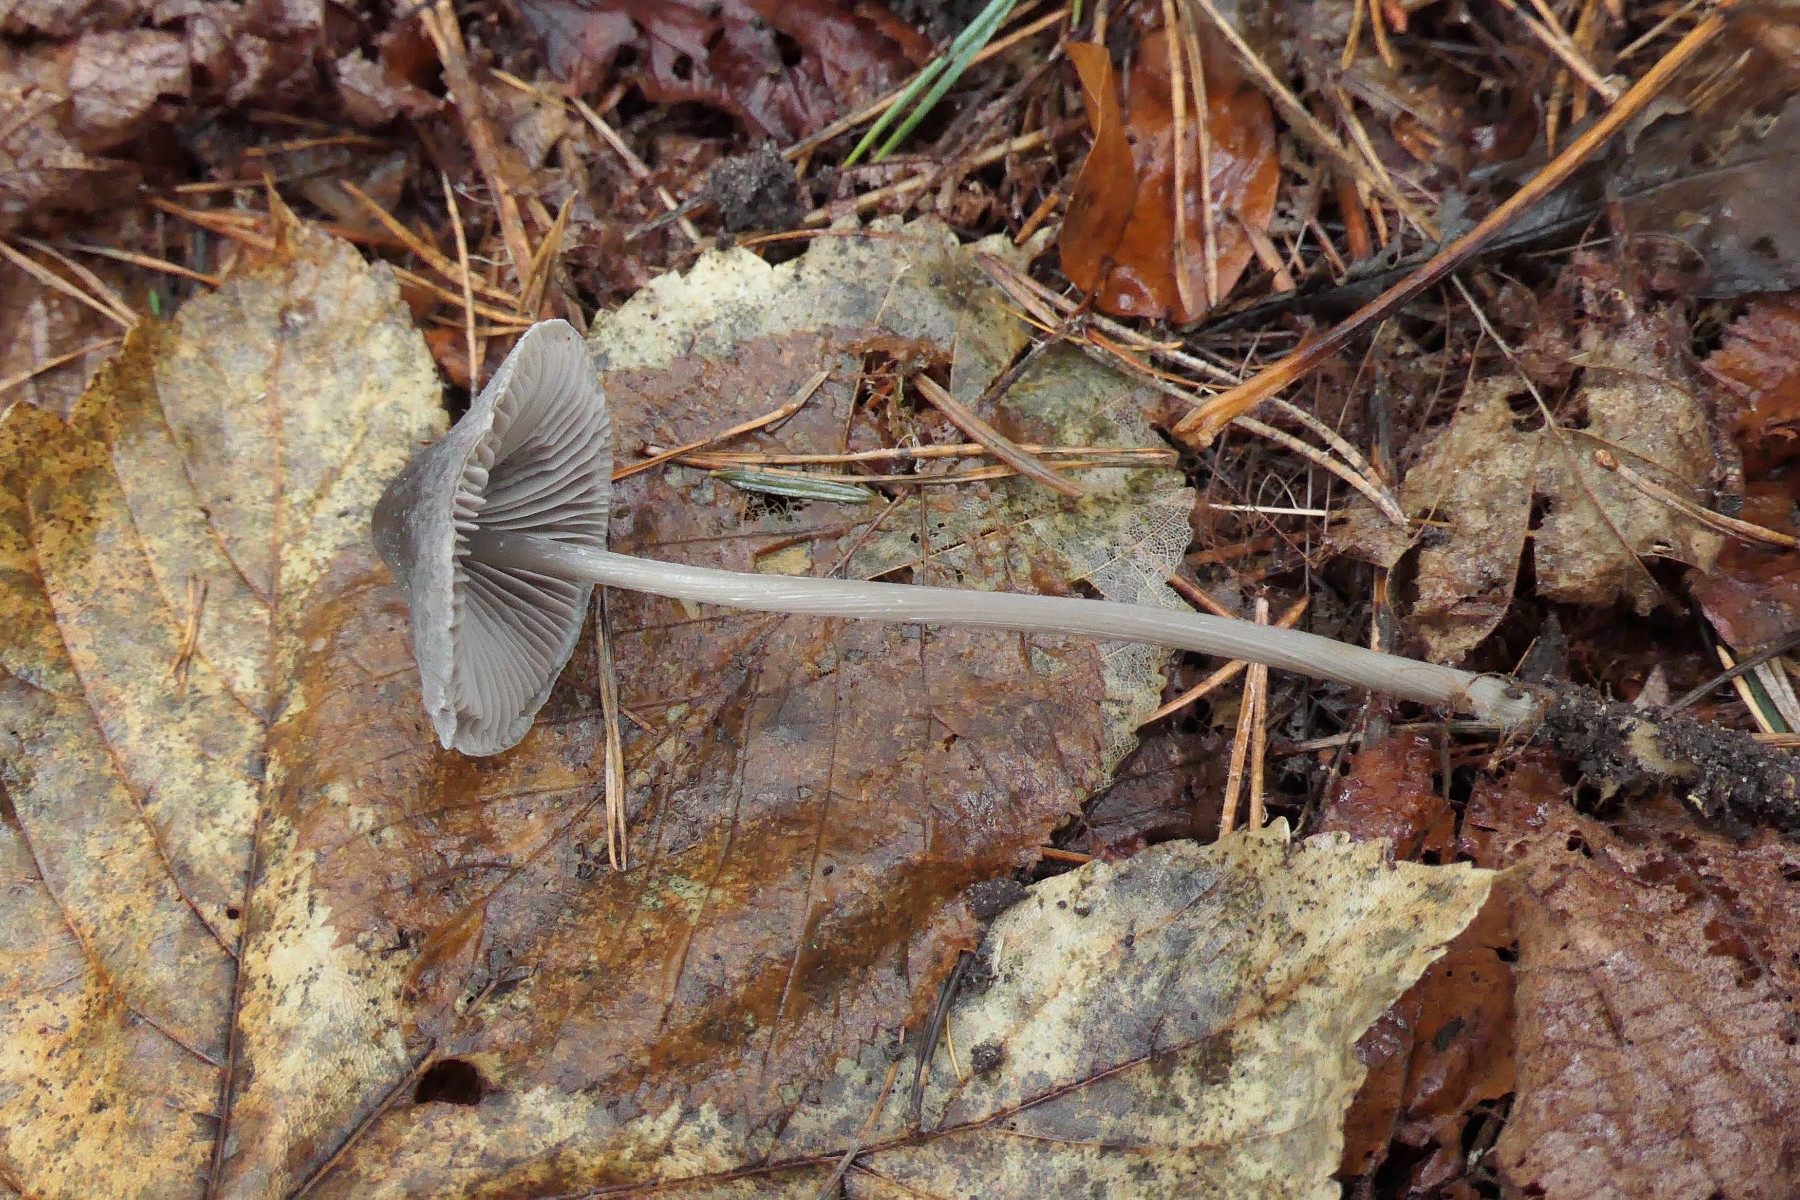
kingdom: Fungi
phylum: Basidiomycota
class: Agaricomycetes
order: Agaricales
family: Mycenaceae
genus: Mycena
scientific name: Mycena polygramma
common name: mangestribet huesvamp
